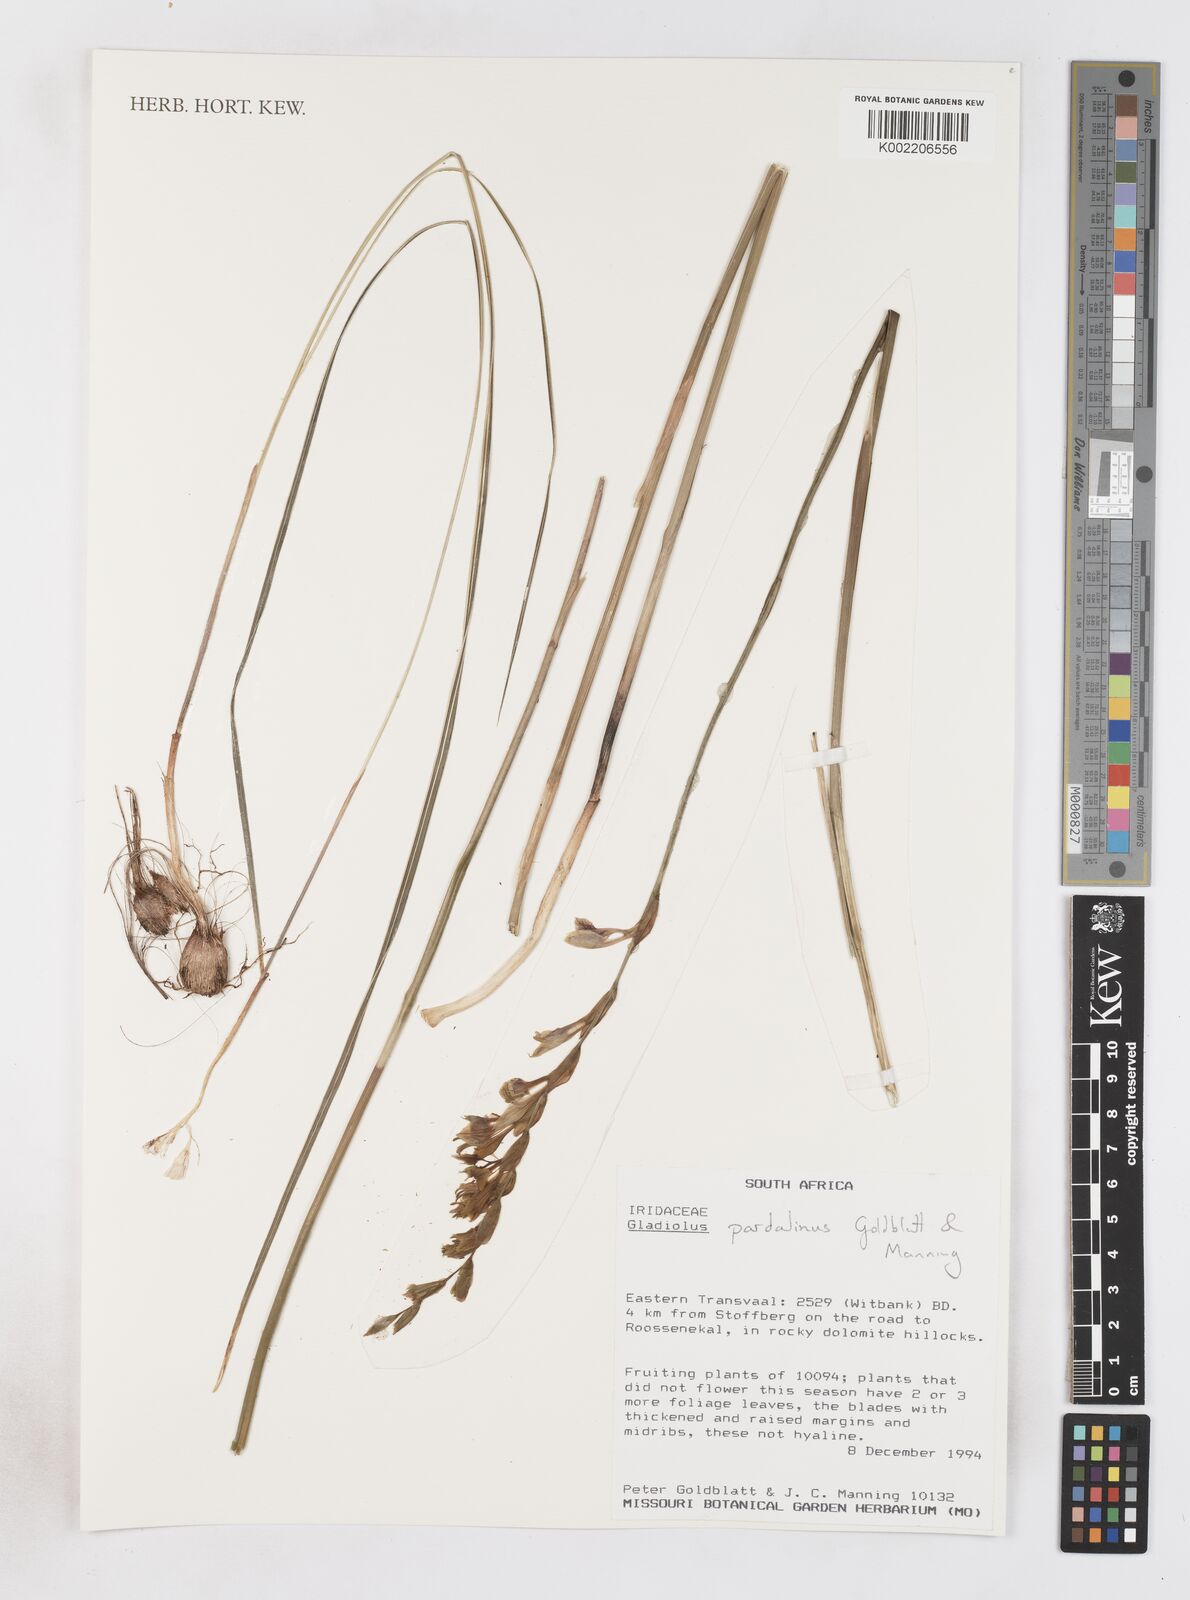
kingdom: Plantae
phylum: Tracheophyta
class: Liliopsida
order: Asparagales
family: Iridaceae
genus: Gladiolus
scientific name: Gladiolus pardalinus
